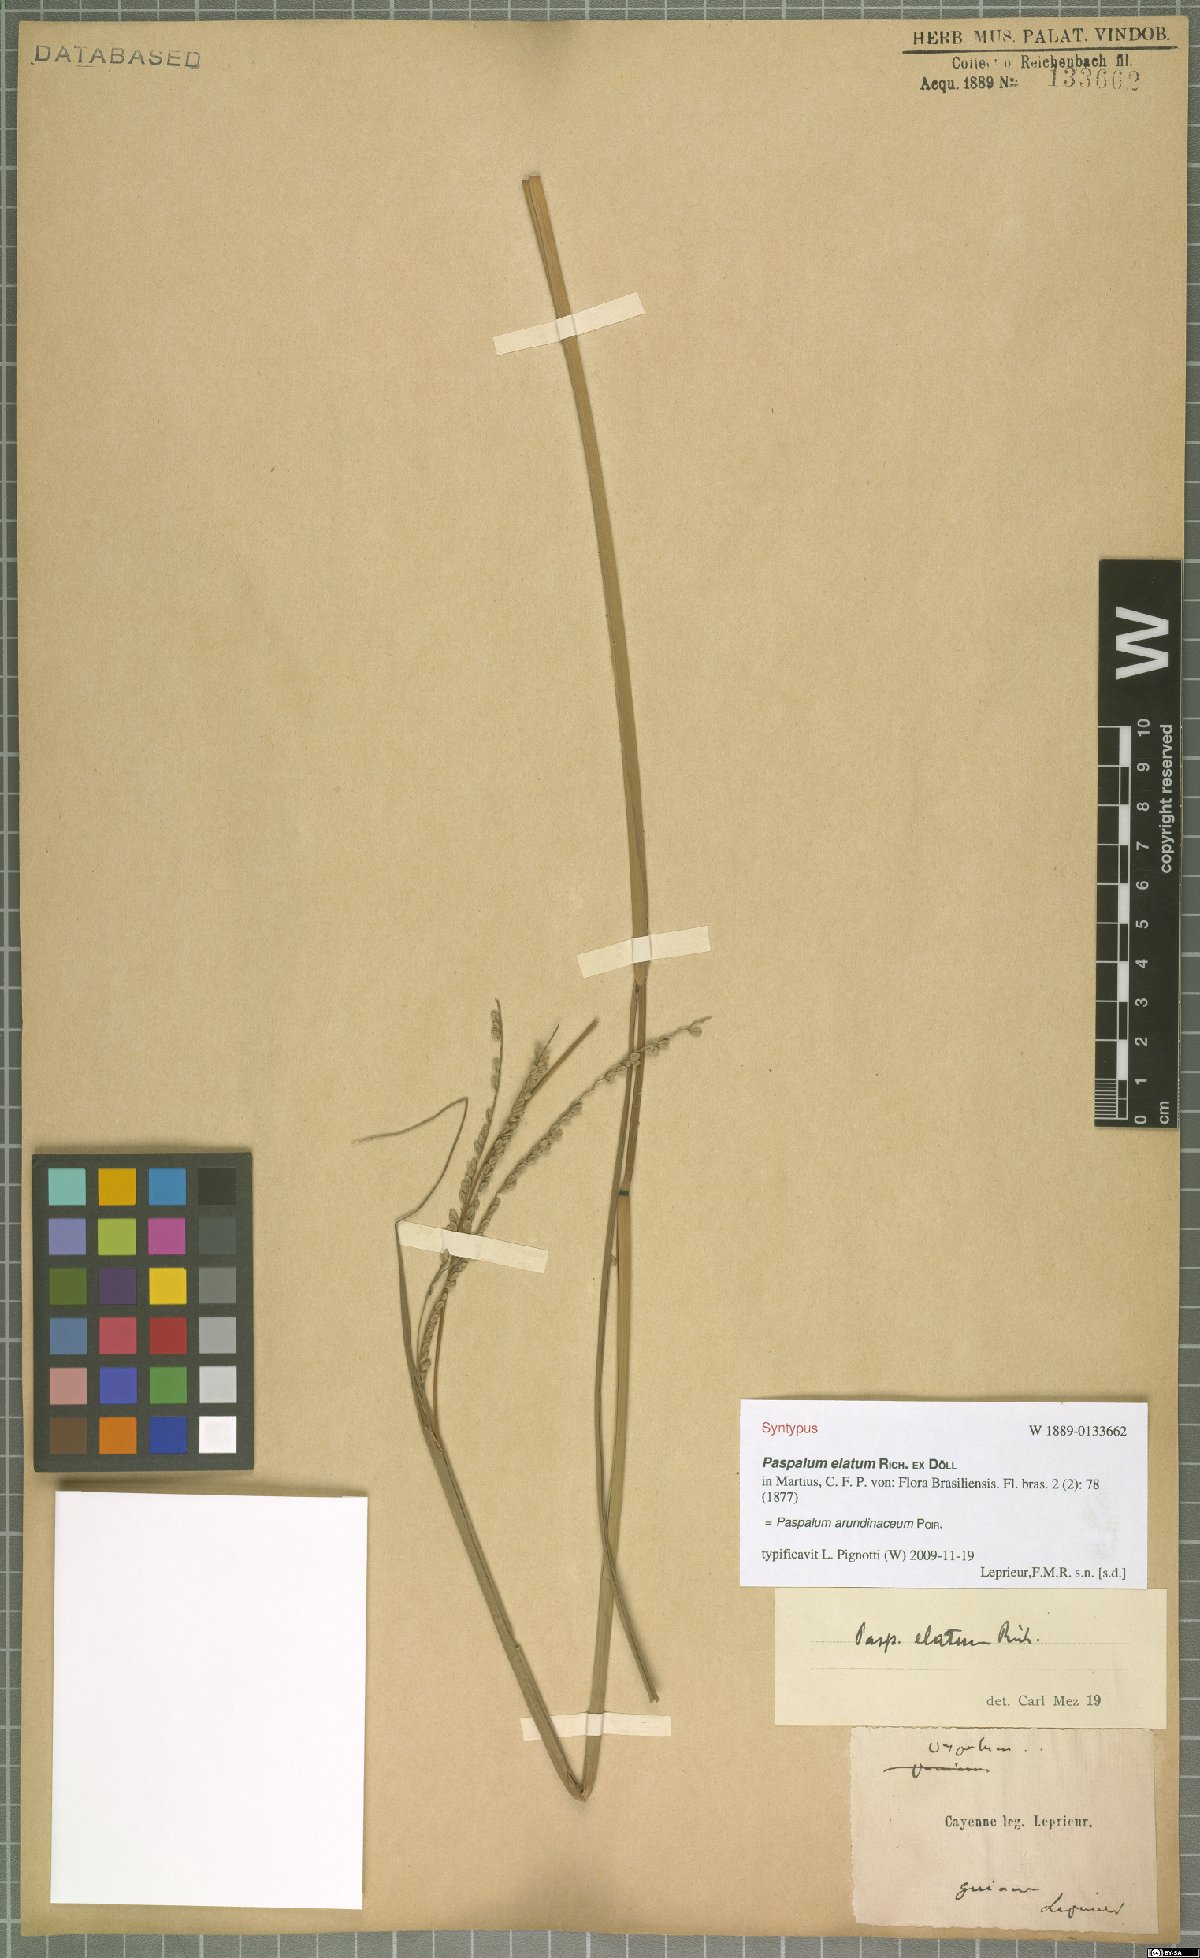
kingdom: Plantae
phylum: Tracheophyta
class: Liliopsida
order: Poales
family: Poaceae
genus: Paspalum
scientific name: Paspalum arundinaceum
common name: Thick ditch crowngrass
